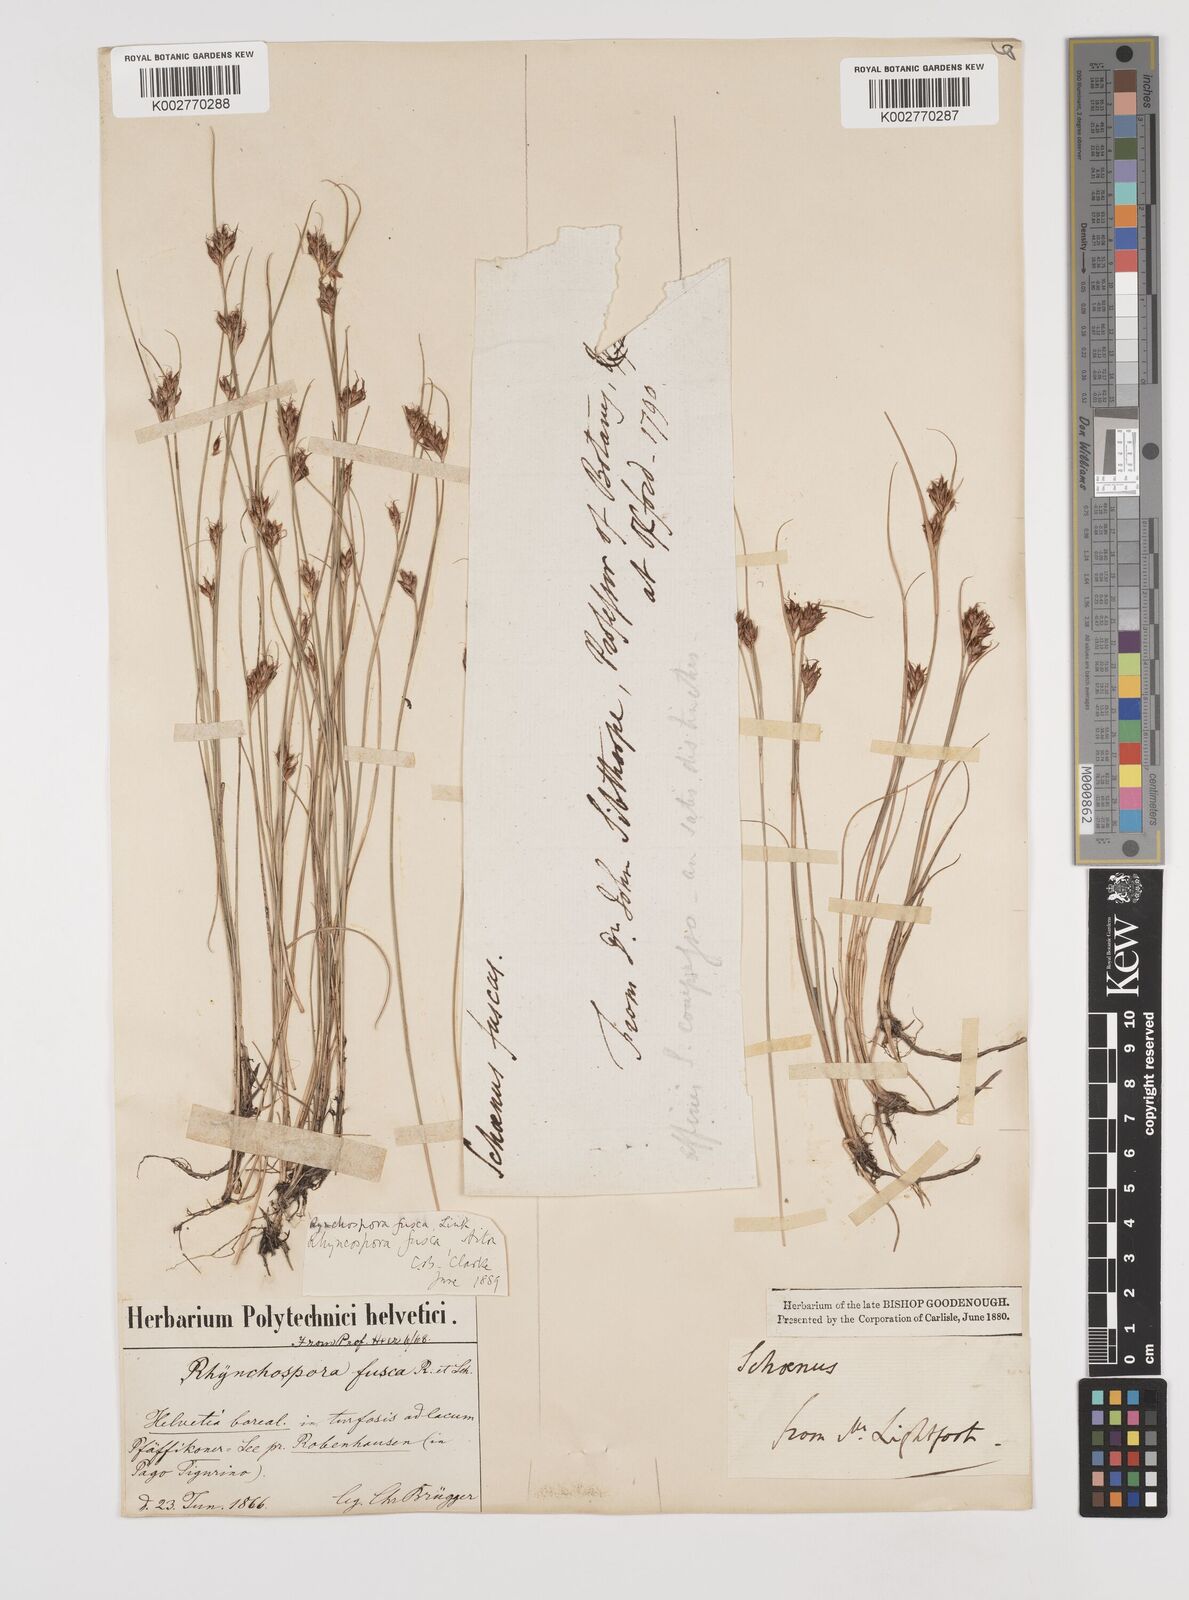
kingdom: Plantae
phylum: Tracheophyta
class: Liliopsida
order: Poales
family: Cyperaceae
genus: Rhynchospora
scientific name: Rhynchospora fusca
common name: Brown beak-sedge
